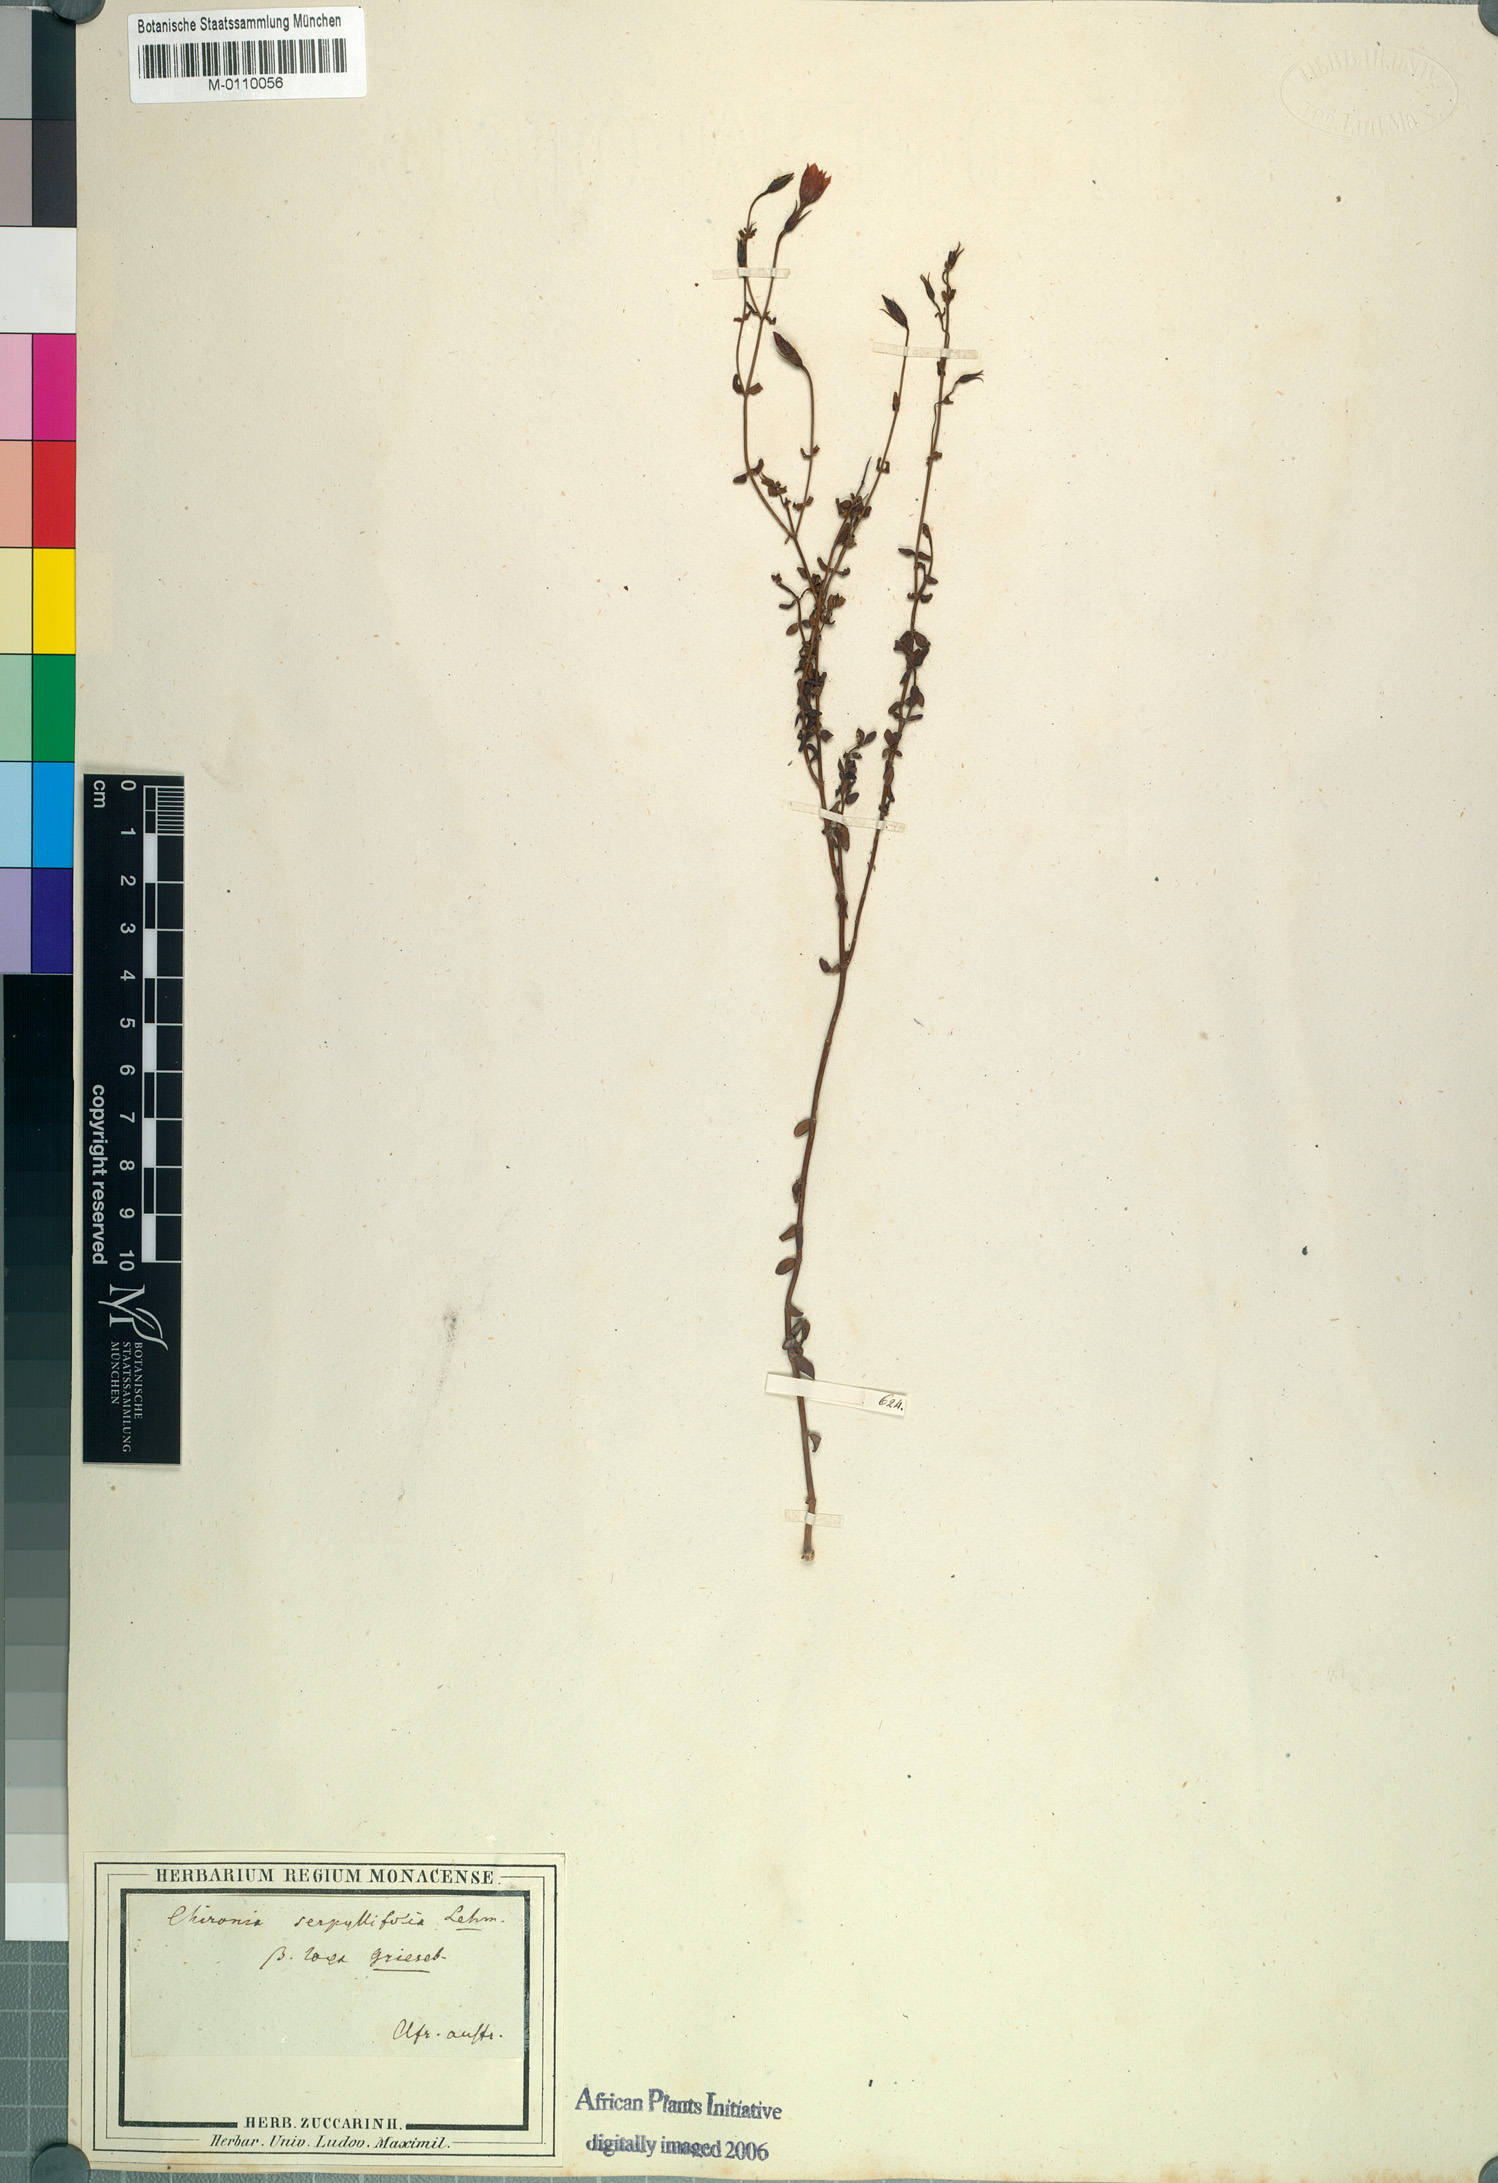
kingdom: Plantae
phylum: Tracheophyta
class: Magnoliopsida
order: Gentianales
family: Gentianaceae
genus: Chironia
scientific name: Chironia serpyllifolia
